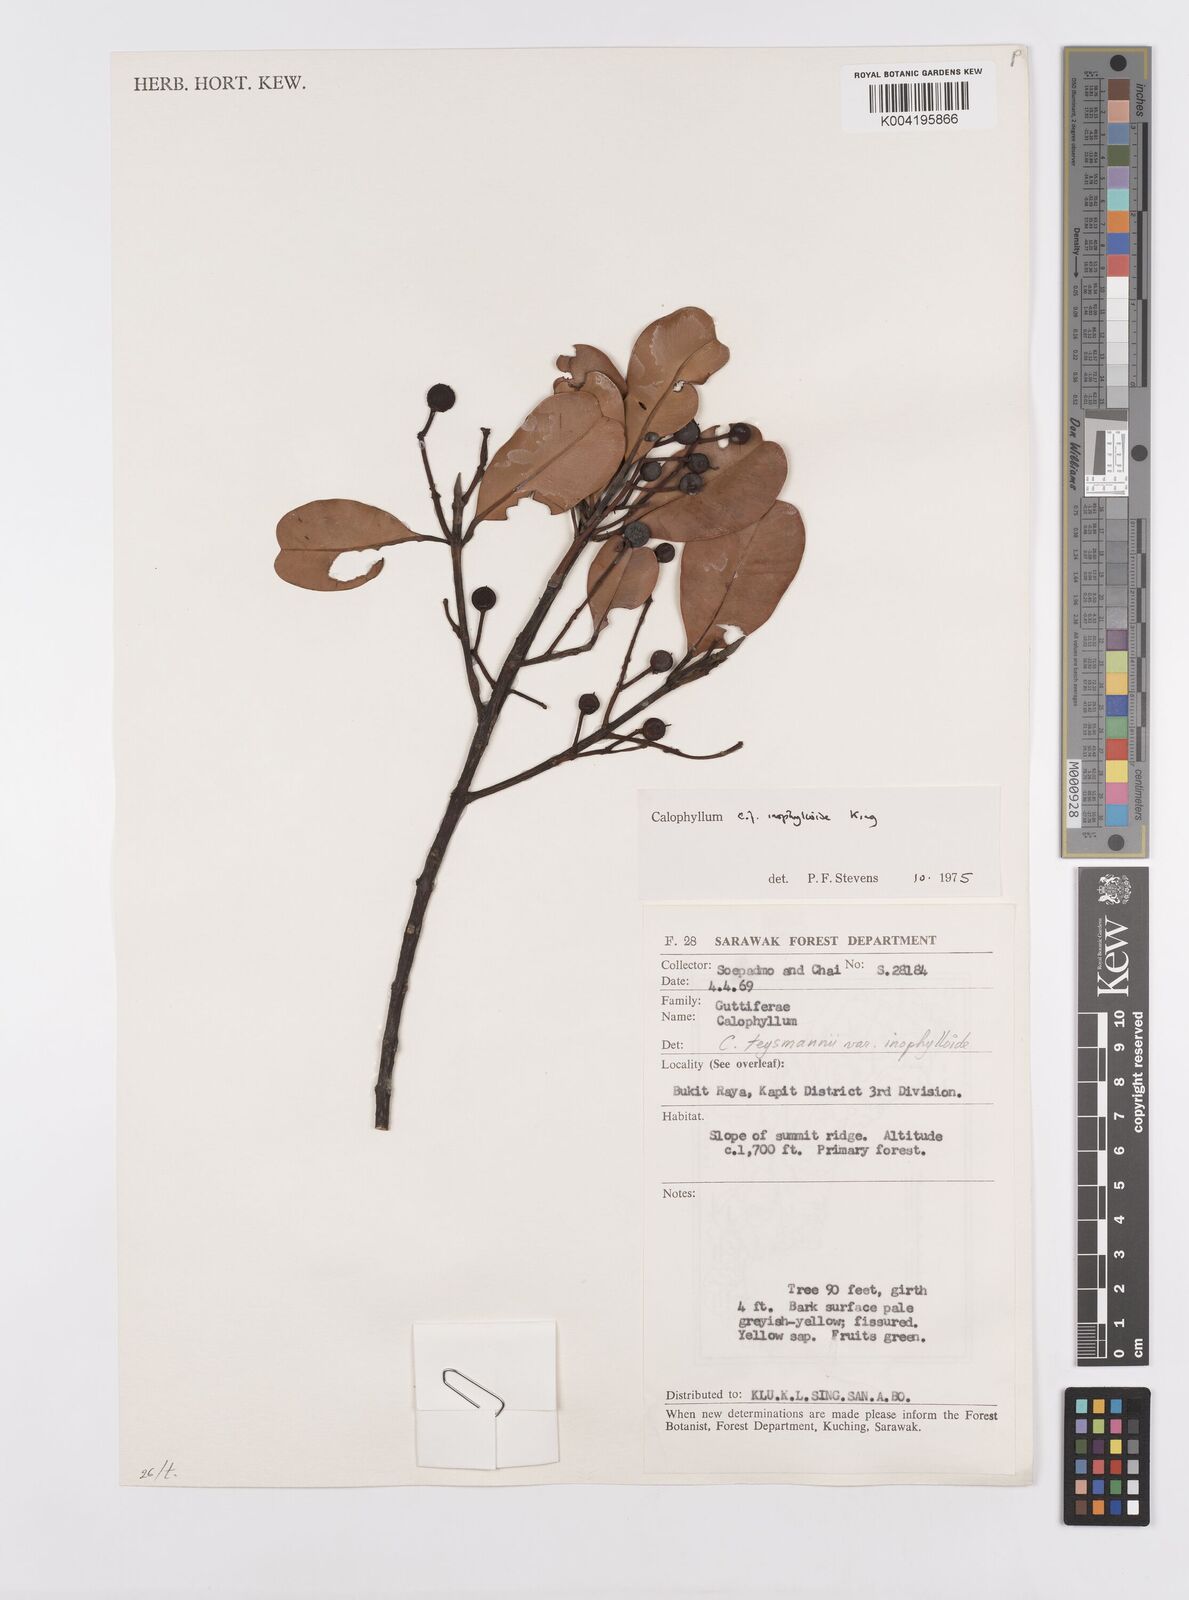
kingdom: Plantae
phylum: Tracheophyta
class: Magnoliopsida
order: Malpighiales
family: Calophyllaceae
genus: Calophyllum
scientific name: Calophyllum teysmannii
